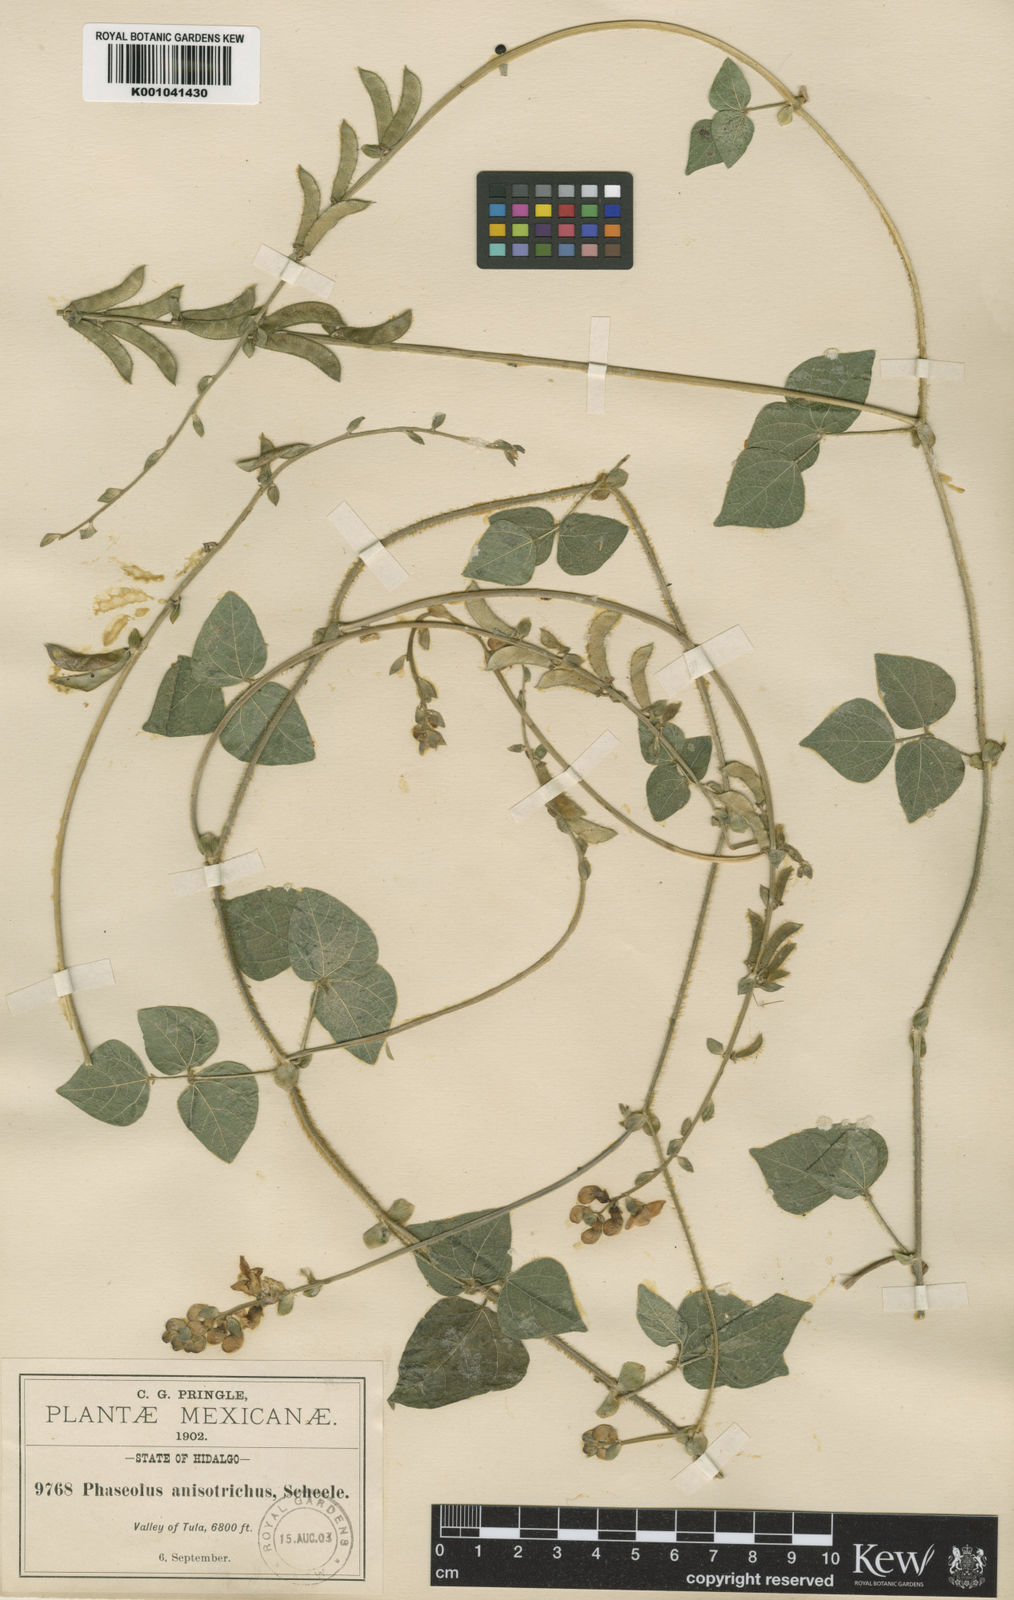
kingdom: Plantae
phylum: Tracheophyta
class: Magnoliopsida
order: Fabales
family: Fabaceae
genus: Phaseolus
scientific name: Phaseolus
